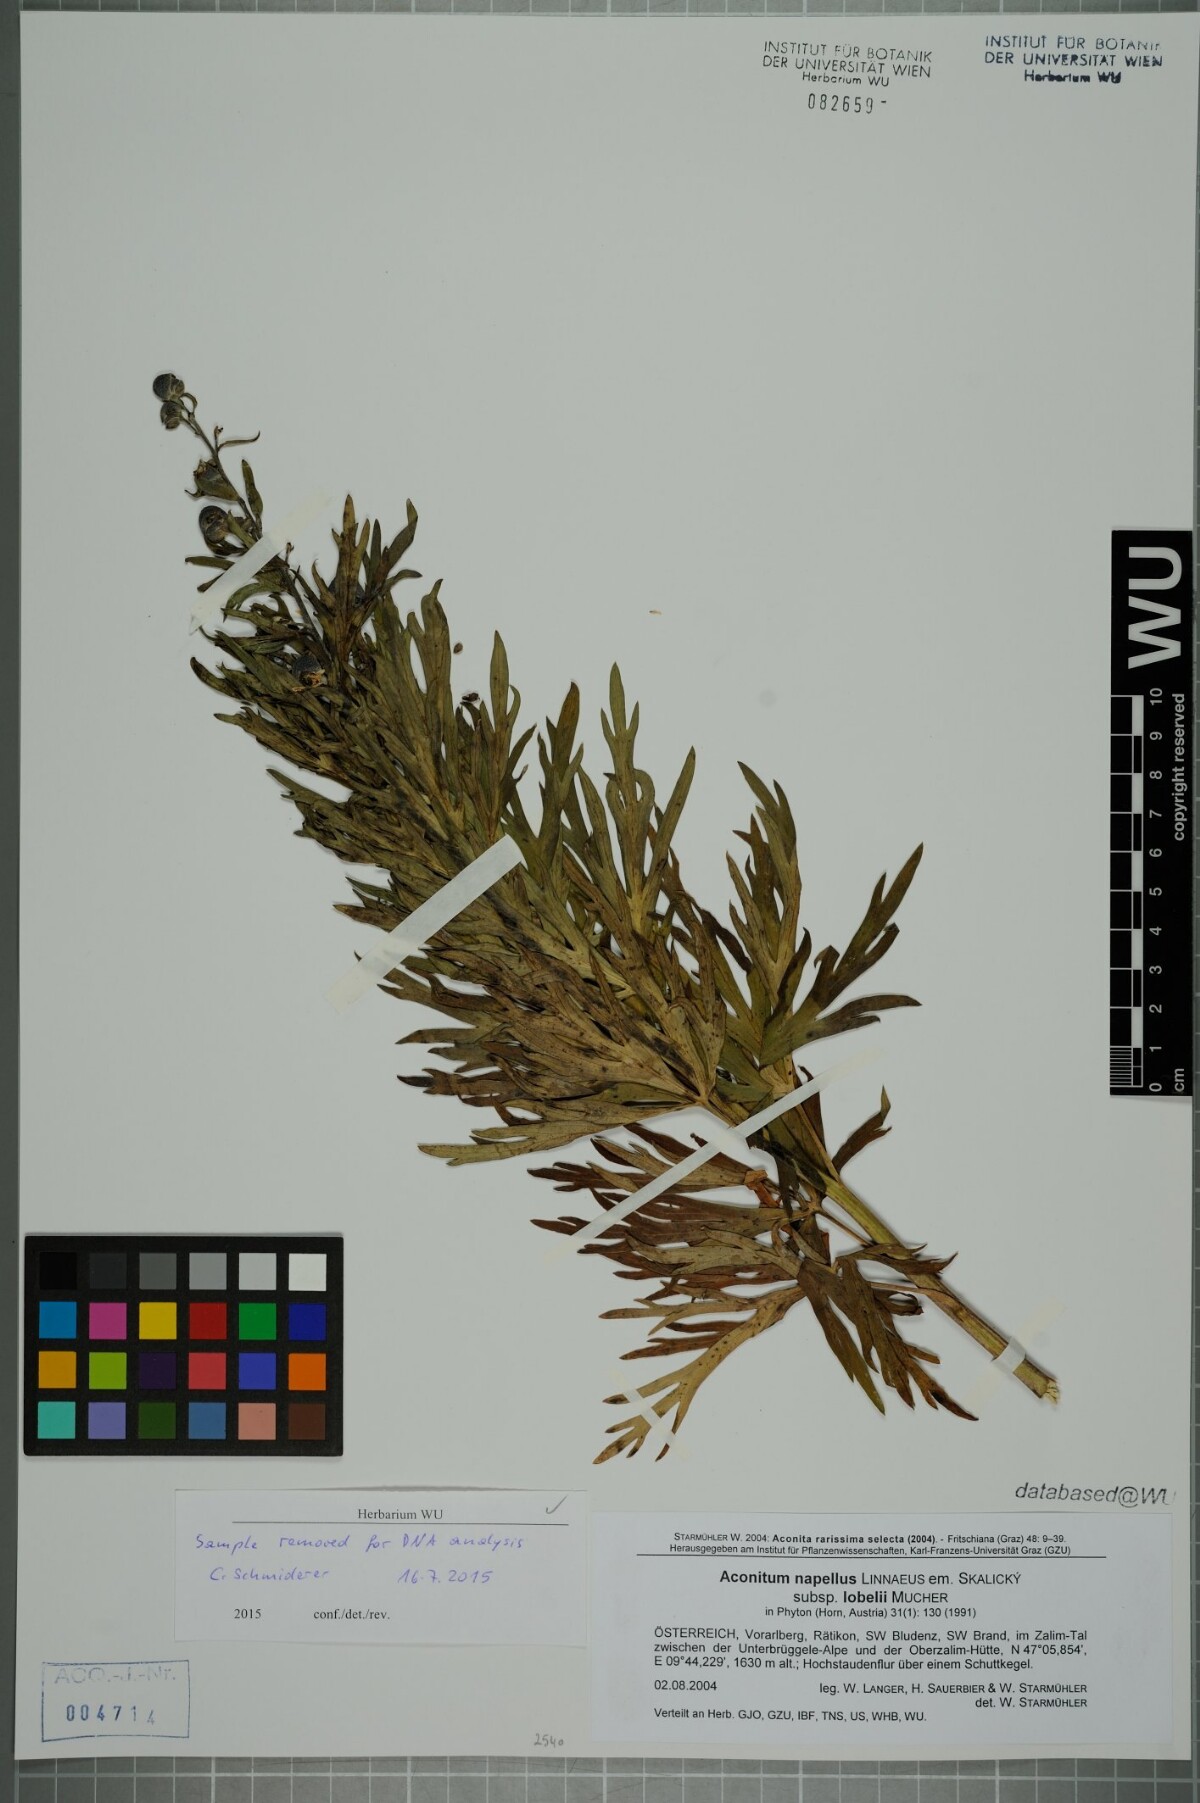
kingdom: Plantae
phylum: Tracheophyta
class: Magnoliopsida
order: Ranunculales
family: Ranunculaceae
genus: Aconitum
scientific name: Aconitum napellus
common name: Garden monkshood
